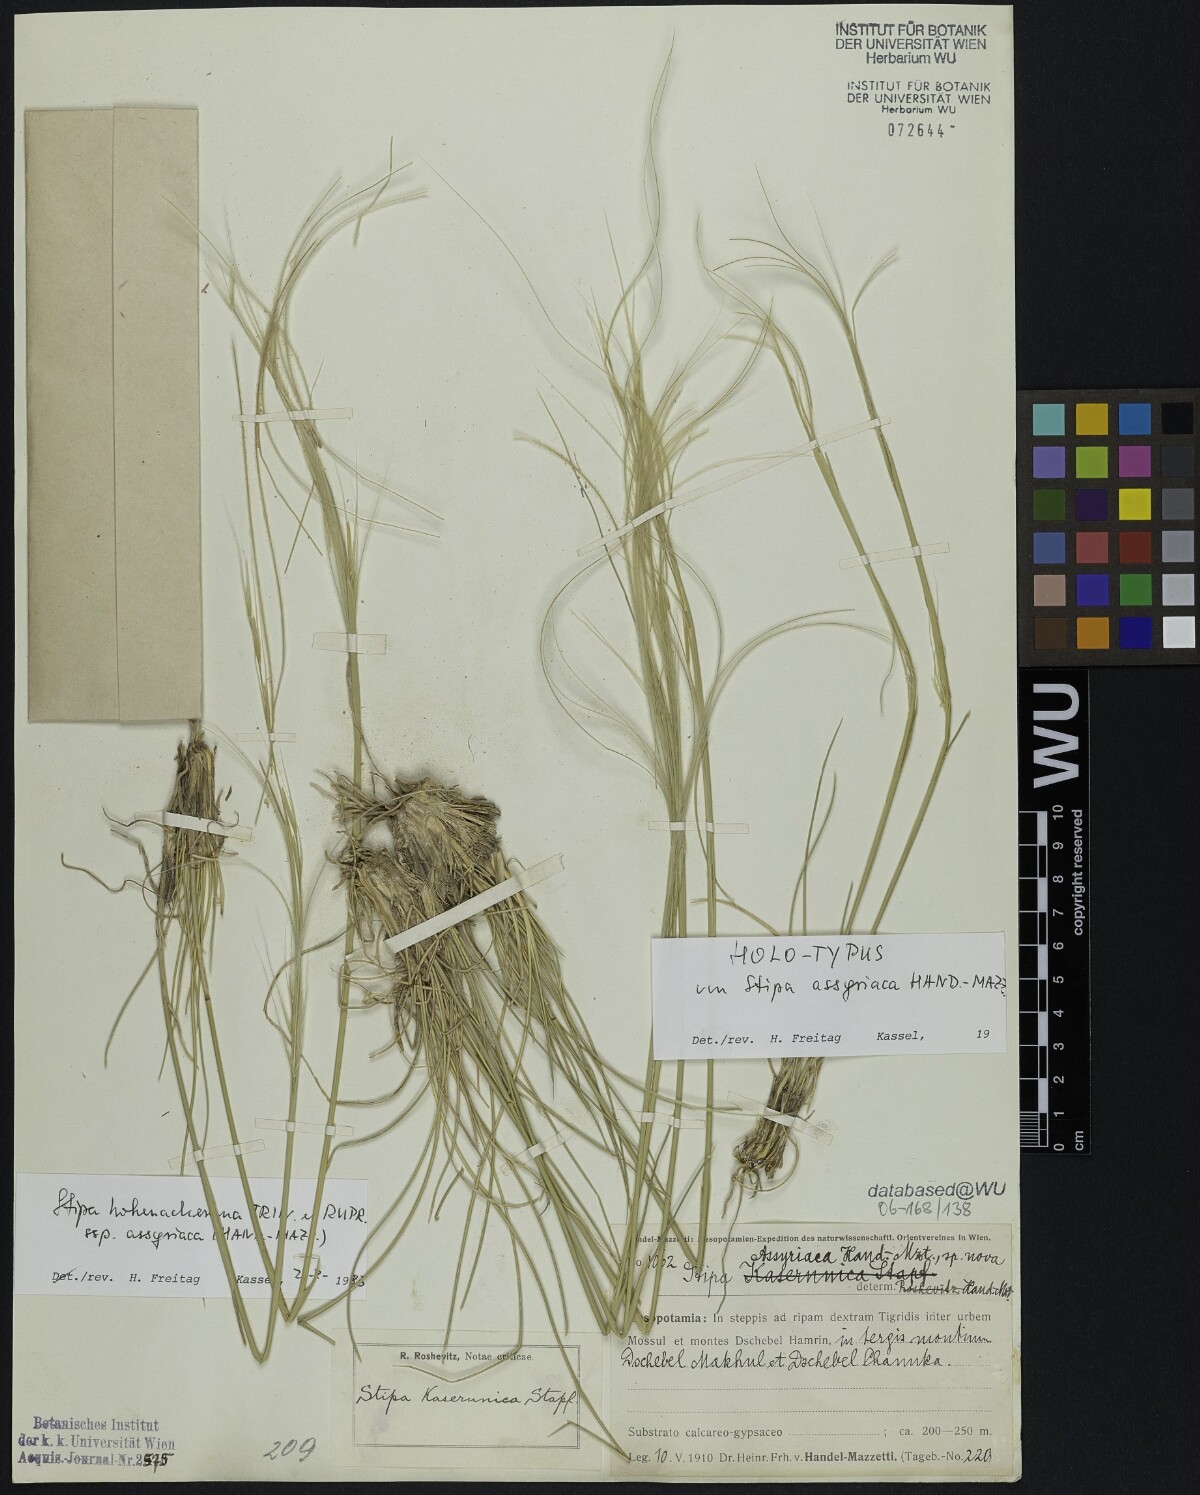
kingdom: Plantae
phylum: Tracheophyta
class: Liliopsida
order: Poales
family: Poaceae
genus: Stipa
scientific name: Stipa assyriaca
